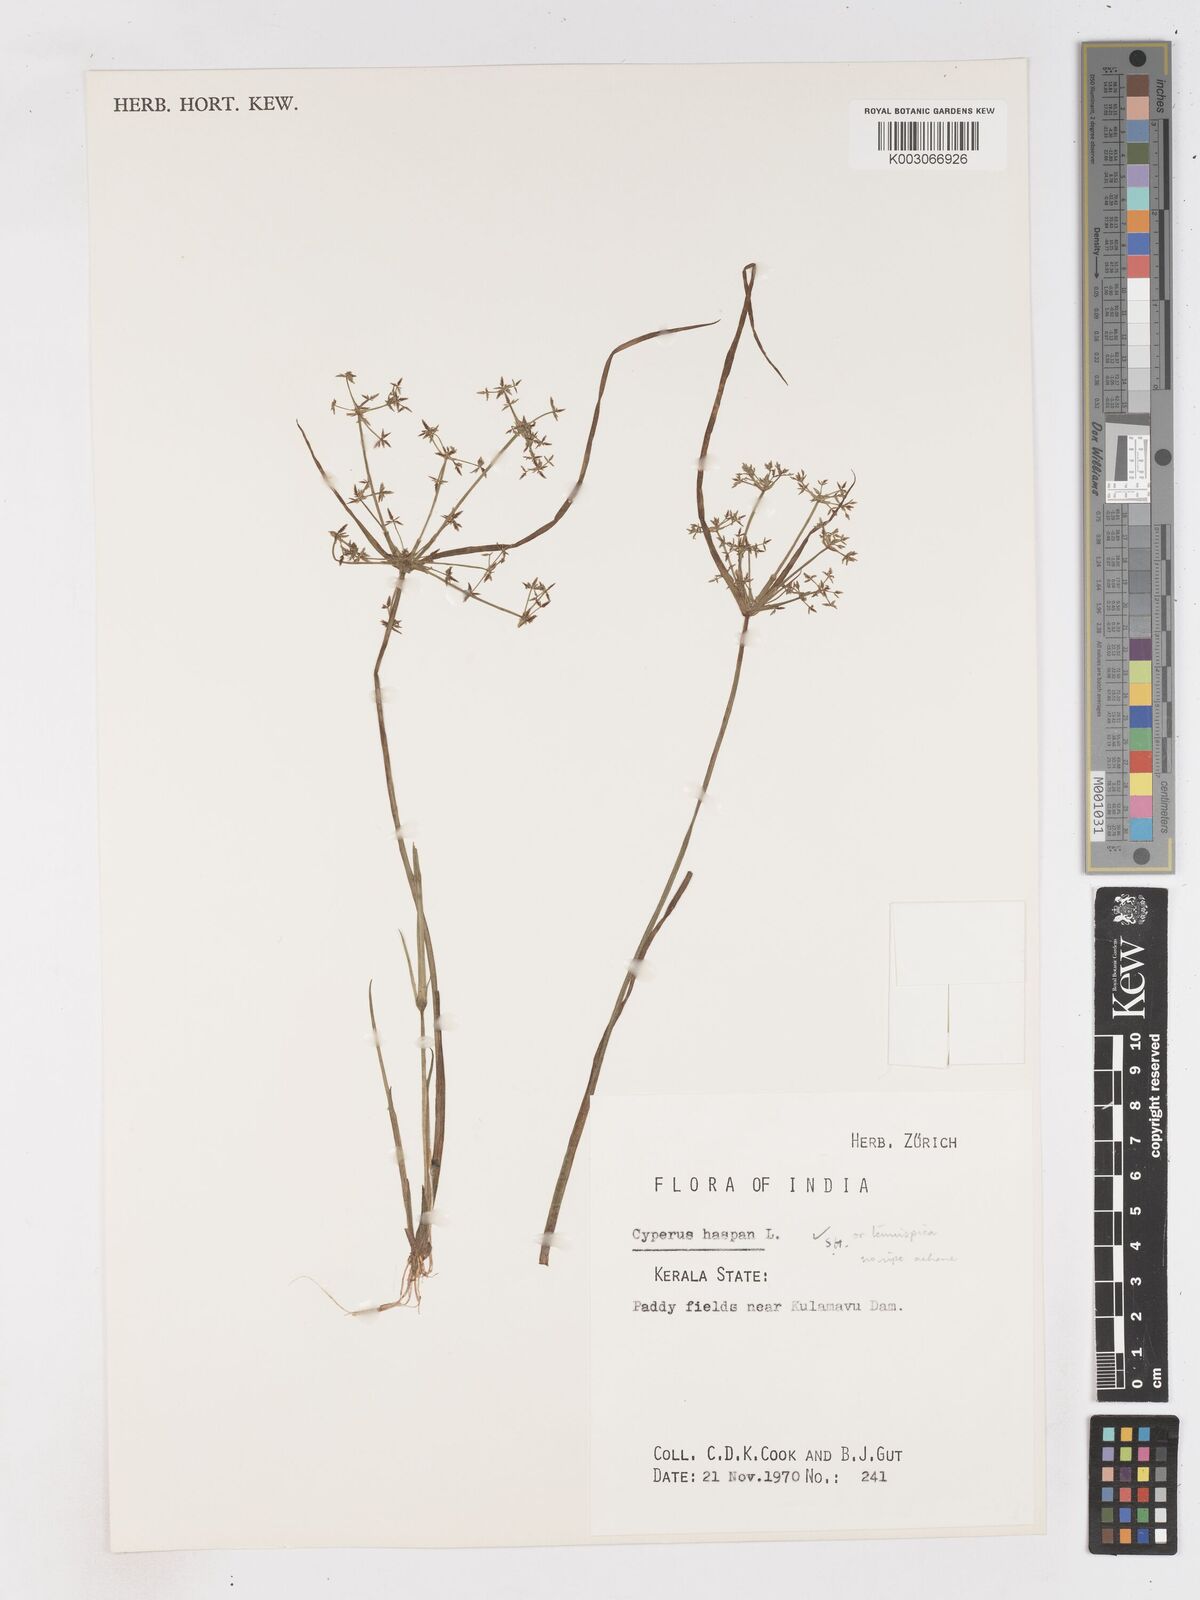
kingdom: Plantae
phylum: Tracheophyta
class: Liliopsida
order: Poales
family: Cyperaceae
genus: Cyperus
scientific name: Cyperus tenuispica
